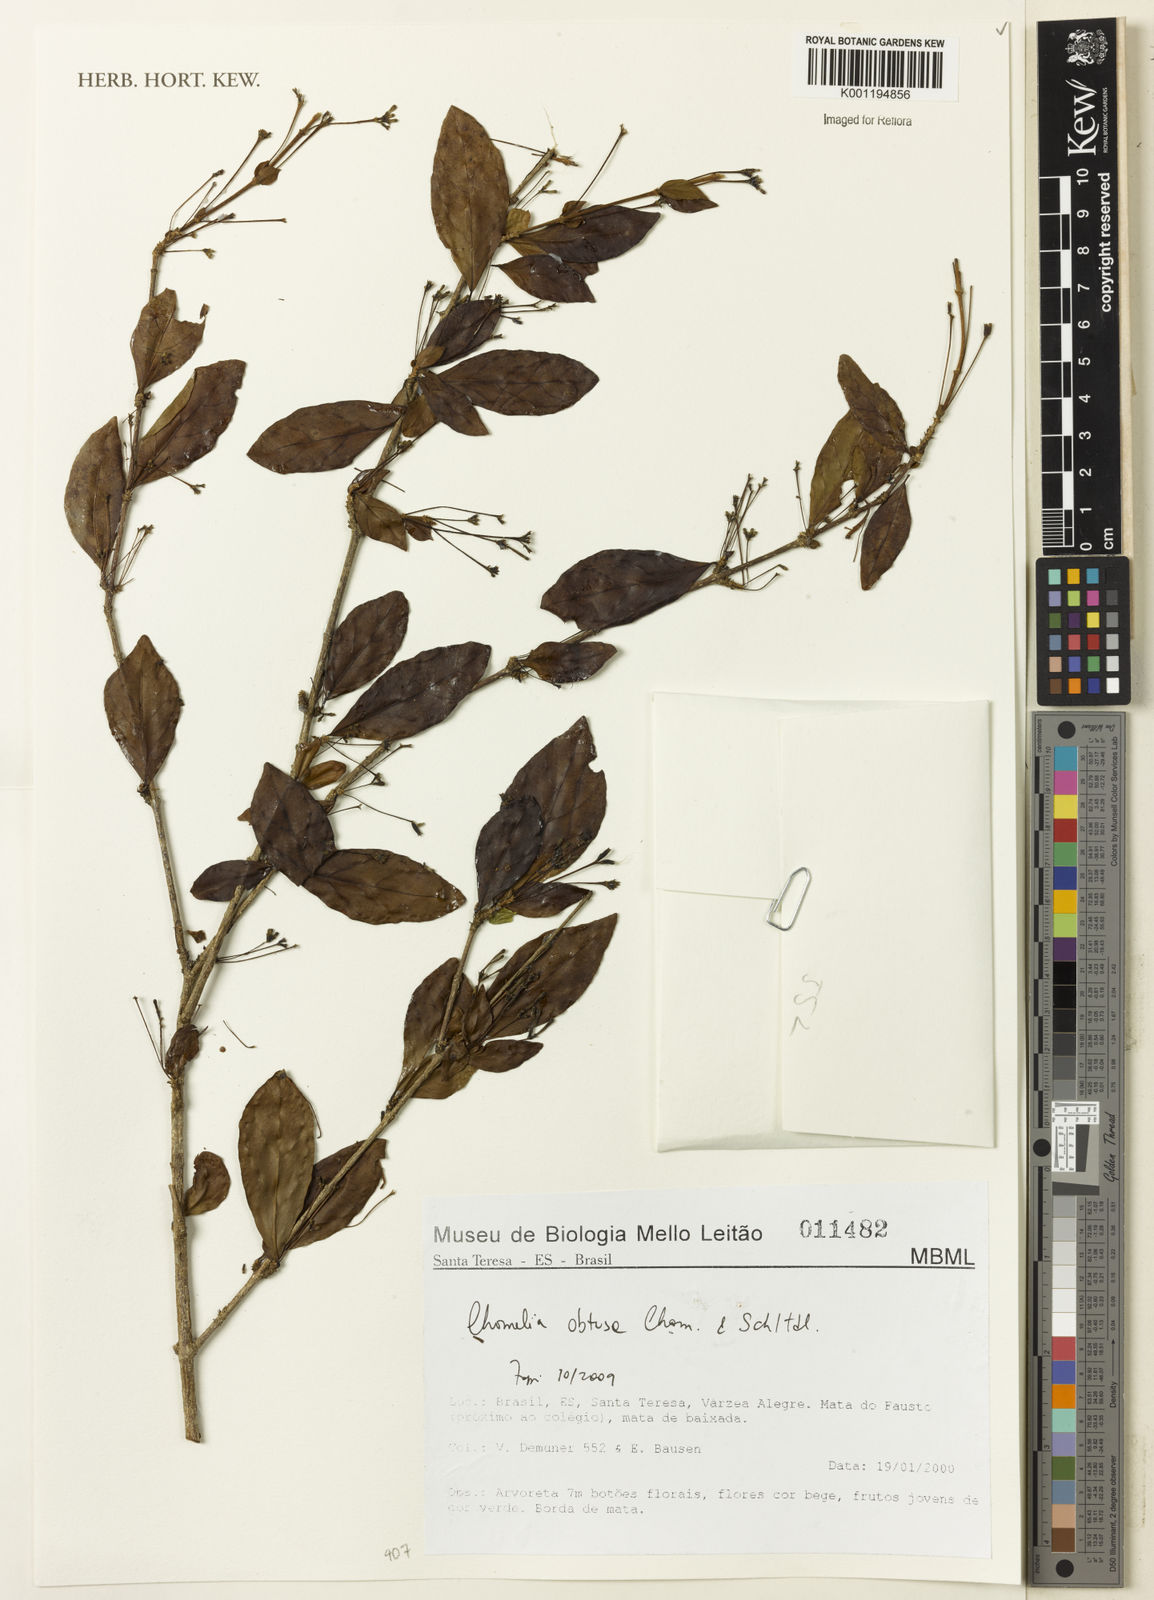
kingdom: Plantae
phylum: Tracheophyta
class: Magnoliopsida
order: Gentianales
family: Rubiaceae
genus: Chomelia
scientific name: Chomelia obtusa
